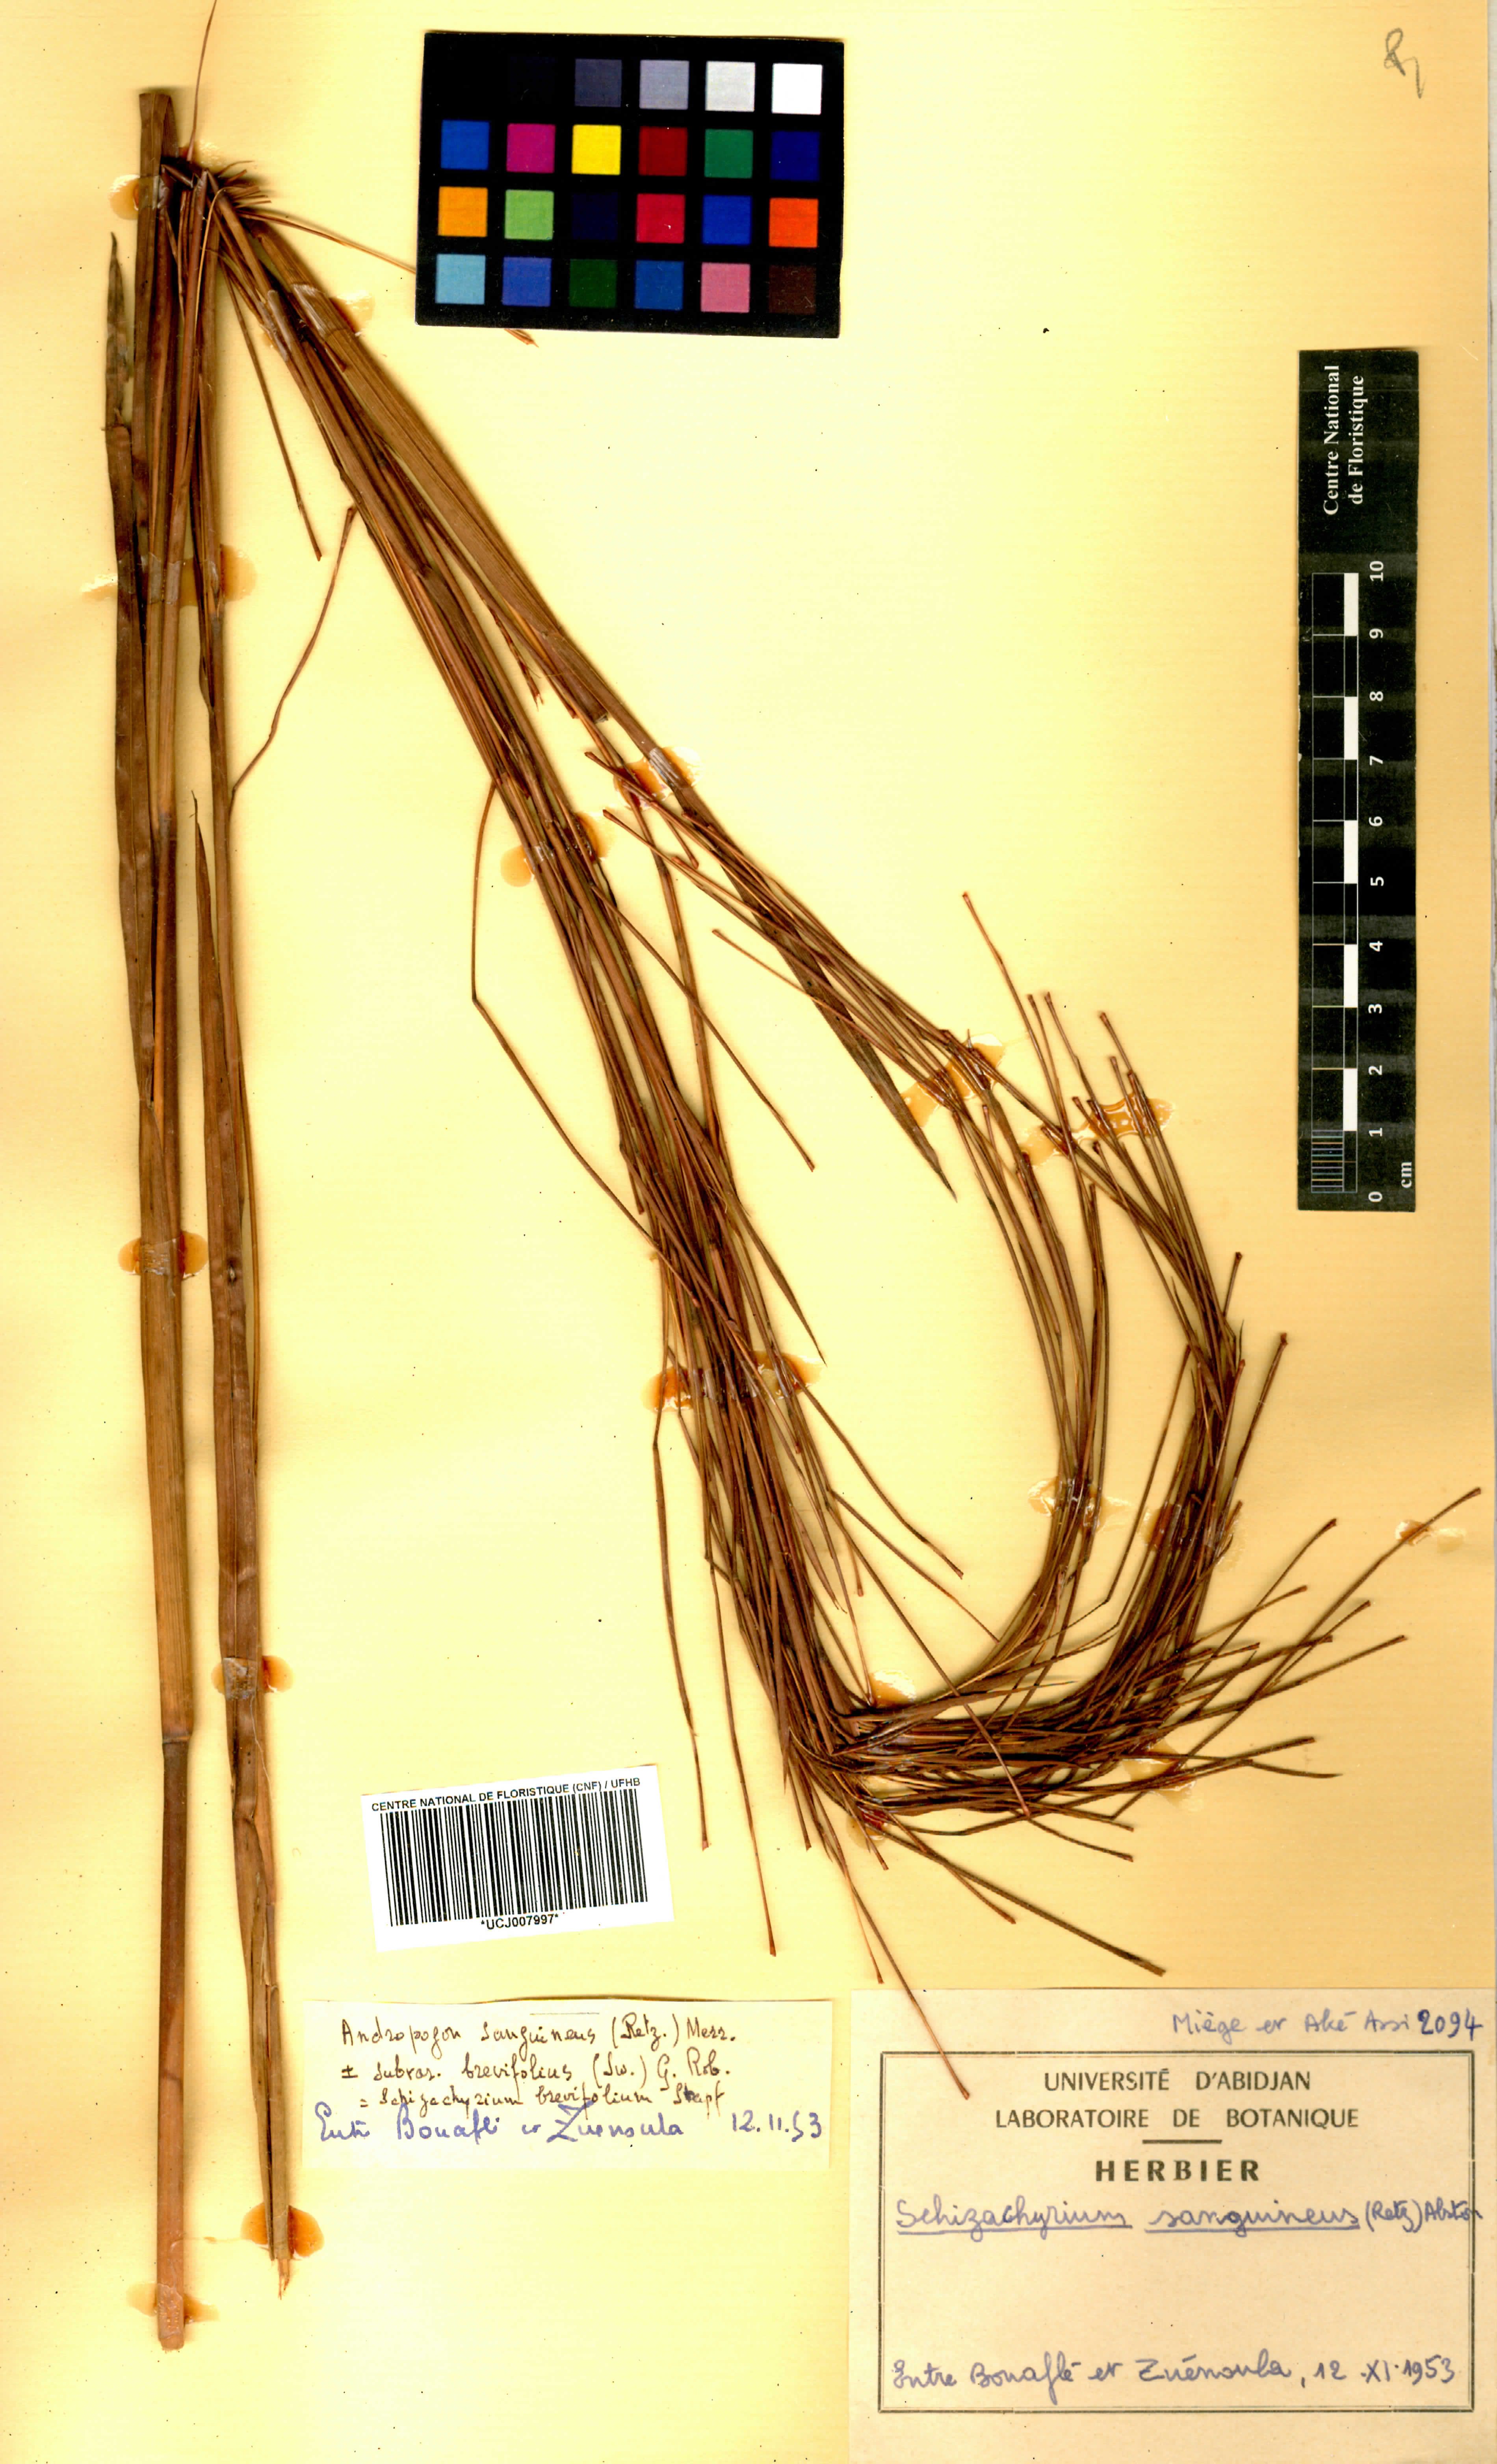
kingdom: Plantae
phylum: Tracheophyta
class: Liliopsida
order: Poales
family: Poaceae
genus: Schizachyrium
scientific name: Schizachyrium sanguineum
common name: Crimson bluestem
